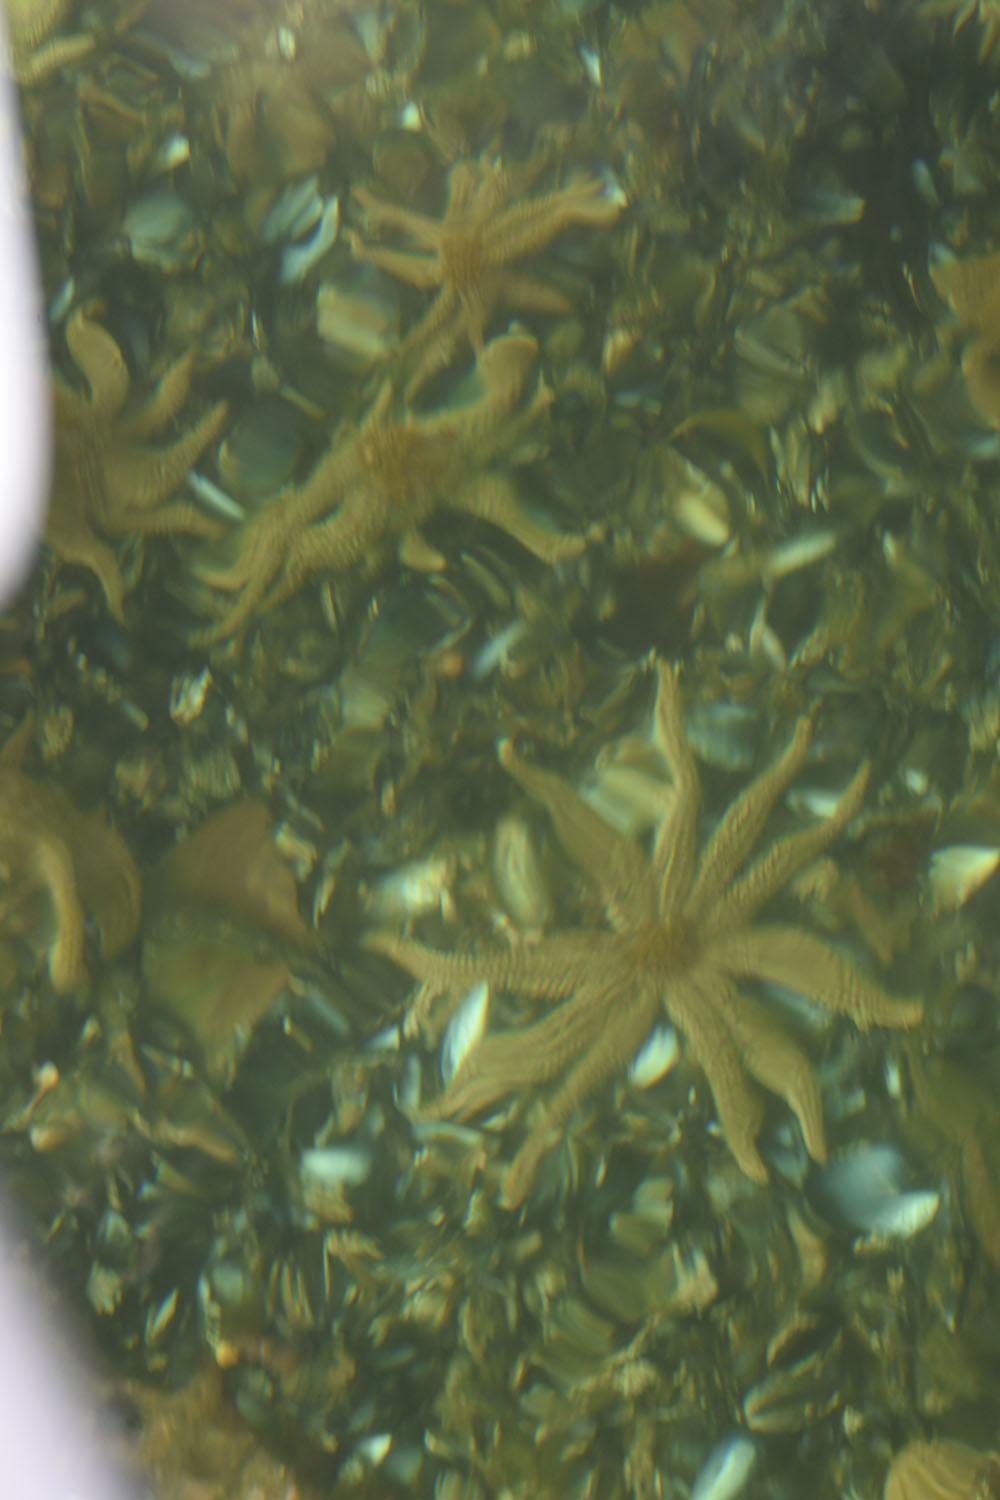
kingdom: Animalia
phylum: Echinodermata
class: Asteroidea
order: Forcipulatida
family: Asteriidae
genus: Coscinasterias
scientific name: Coscinasterias calamaria
